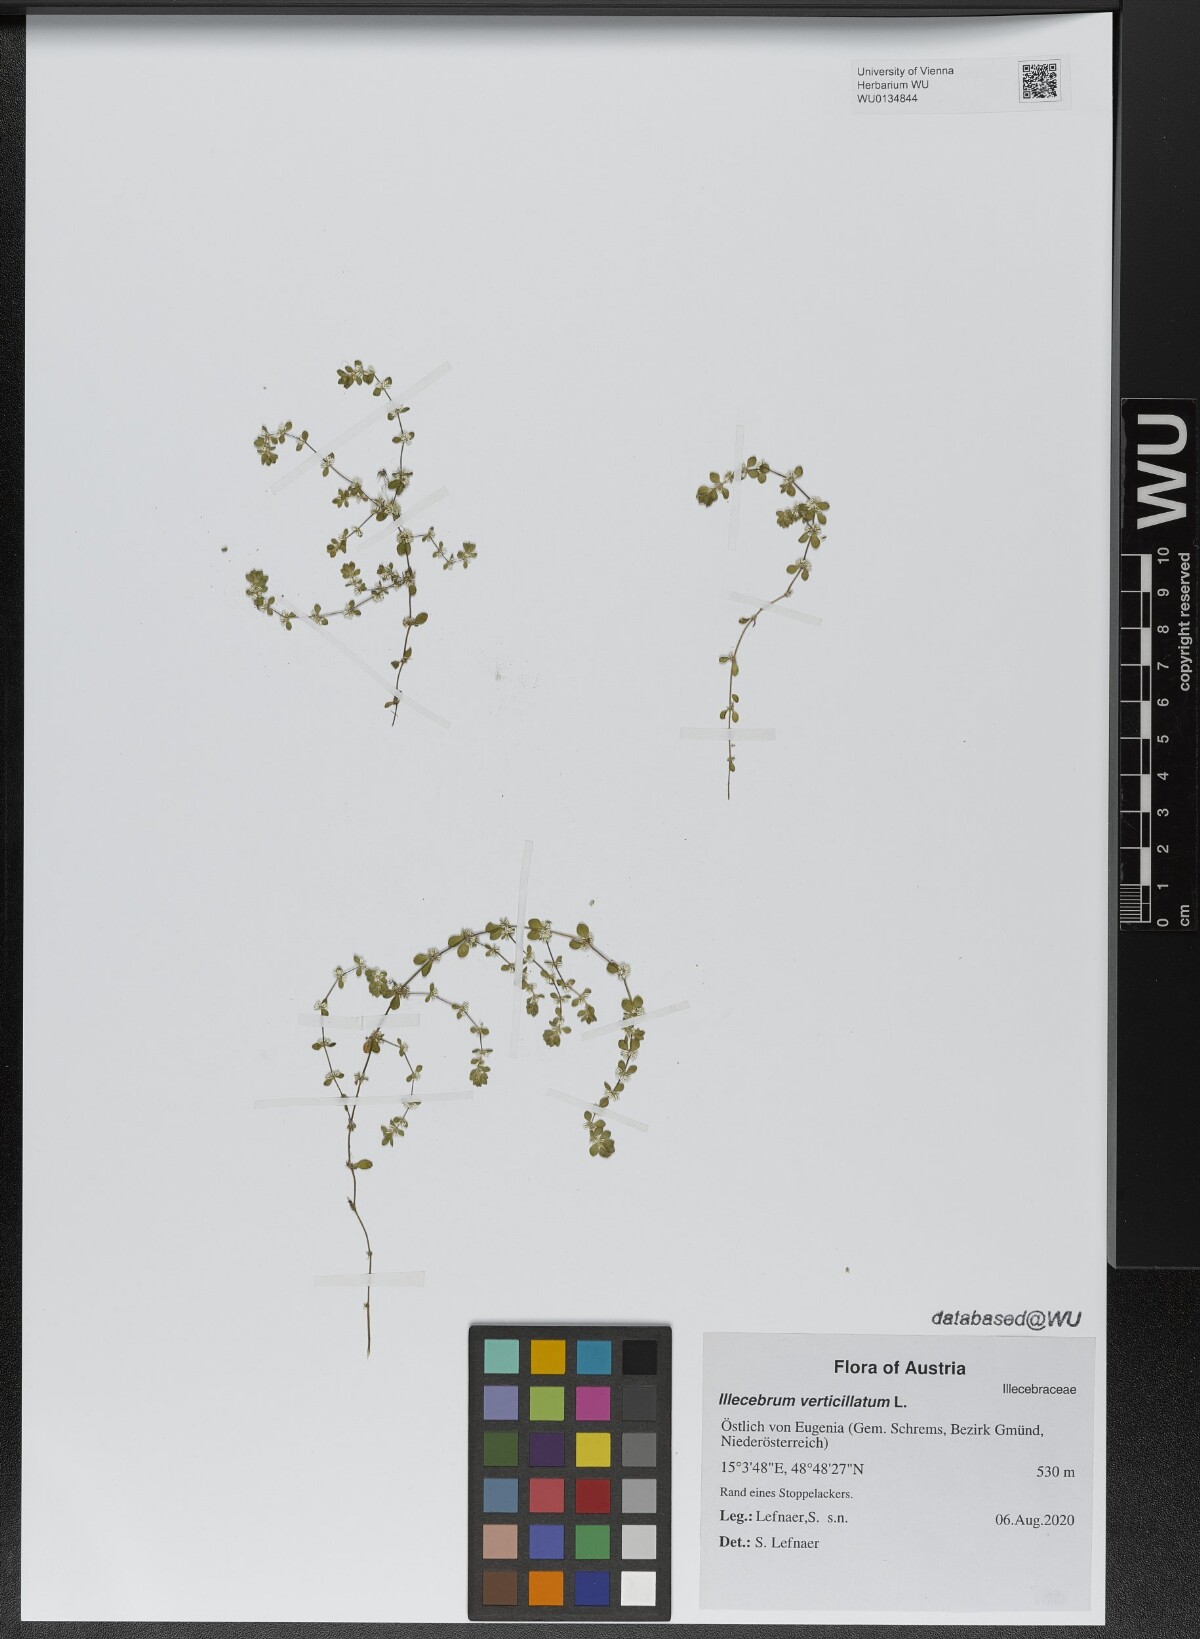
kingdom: Plantae
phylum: Tracheophyta
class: Magnoliopsida
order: Caryophyllales
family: Caryophyllaceae
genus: Illecebrum
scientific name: Illecebrum verticillatum
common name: Coral necklace
